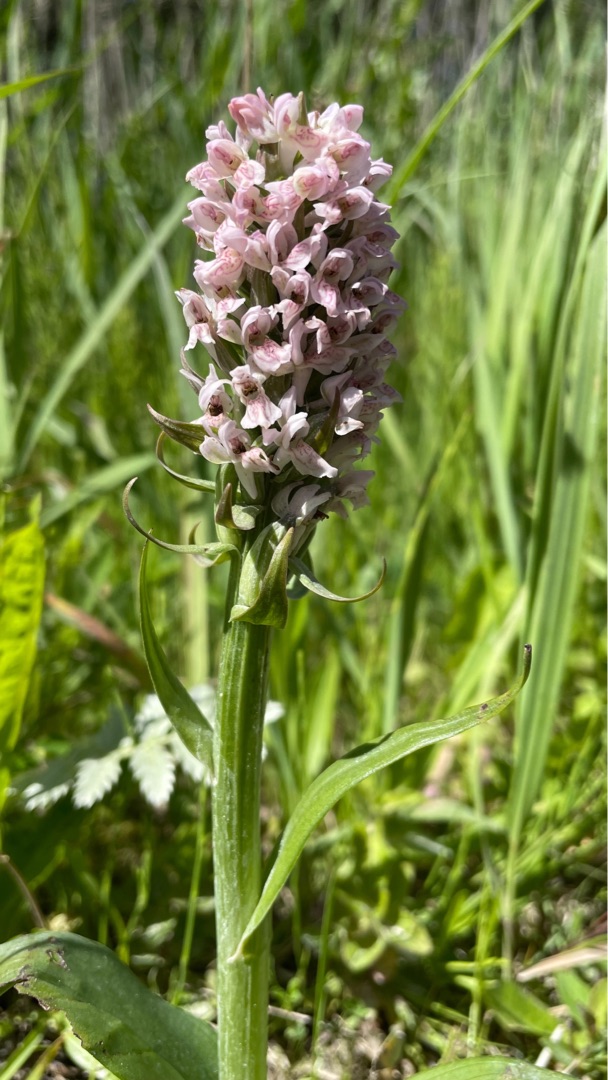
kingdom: Plantae
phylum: Tracheophyta
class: Liliopsida
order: Asparagales
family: Orchidaceae
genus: Dactylorhiza
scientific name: Dactylorhiza incarnata
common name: Kødfarvet gøgeurt
